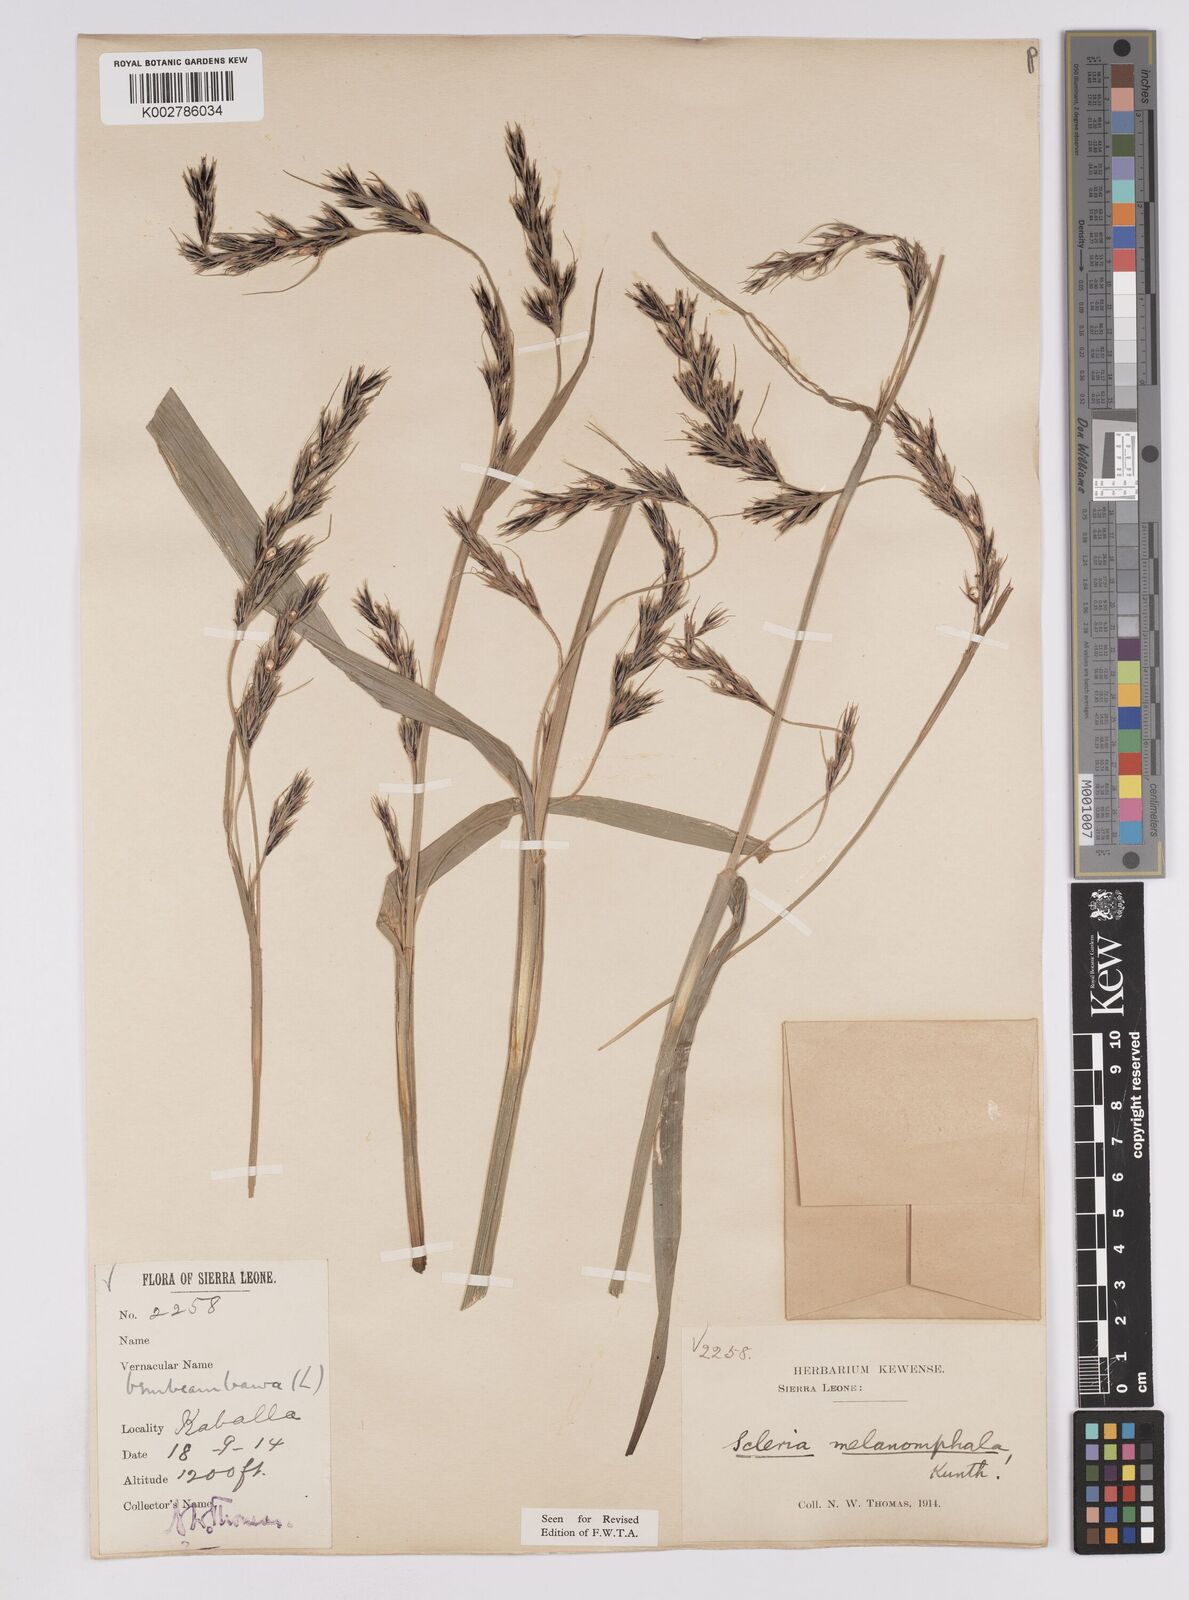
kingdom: Plantae
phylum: Tracheophyta
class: Liliopsida
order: Poales
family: Cyperaceae
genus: Scleria
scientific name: Scleria melanomphala
